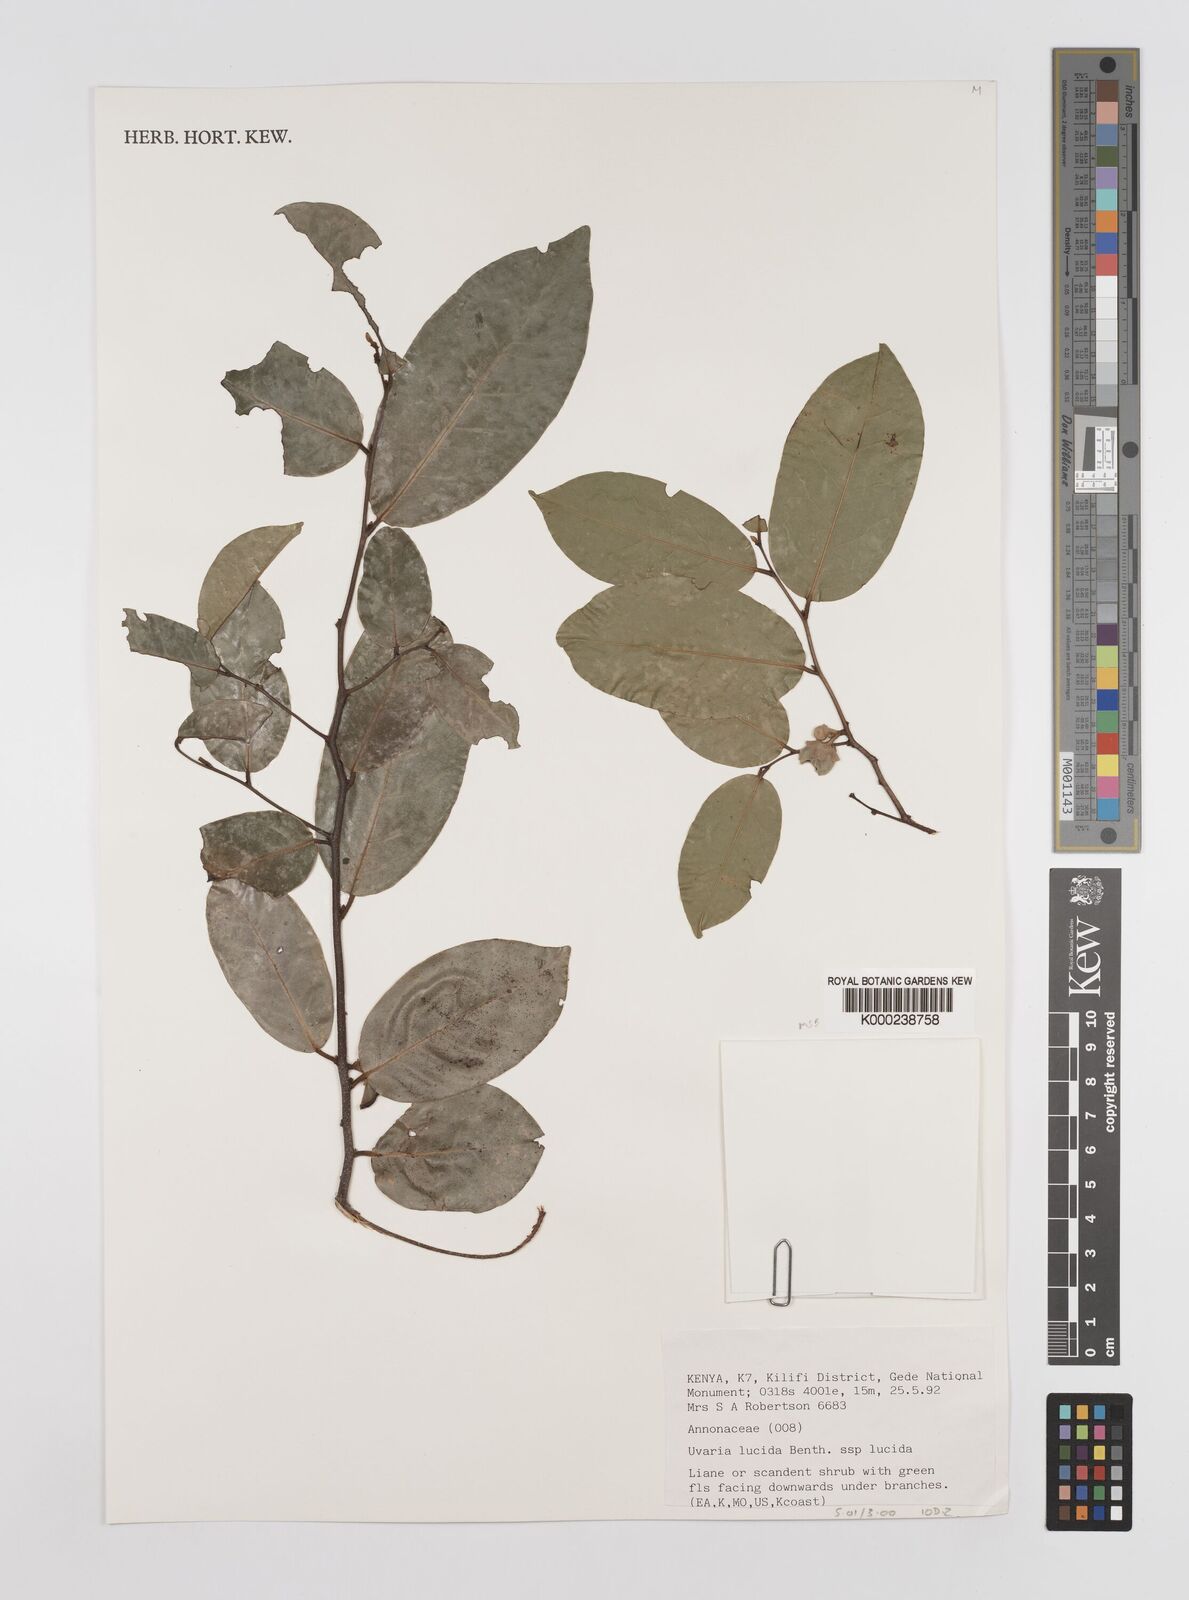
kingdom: Plantae
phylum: Tracheophyta
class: Magnoliopsida
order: Magnoliales
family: Annonaceae
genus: Uvaria
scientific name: Uvaria lucida
